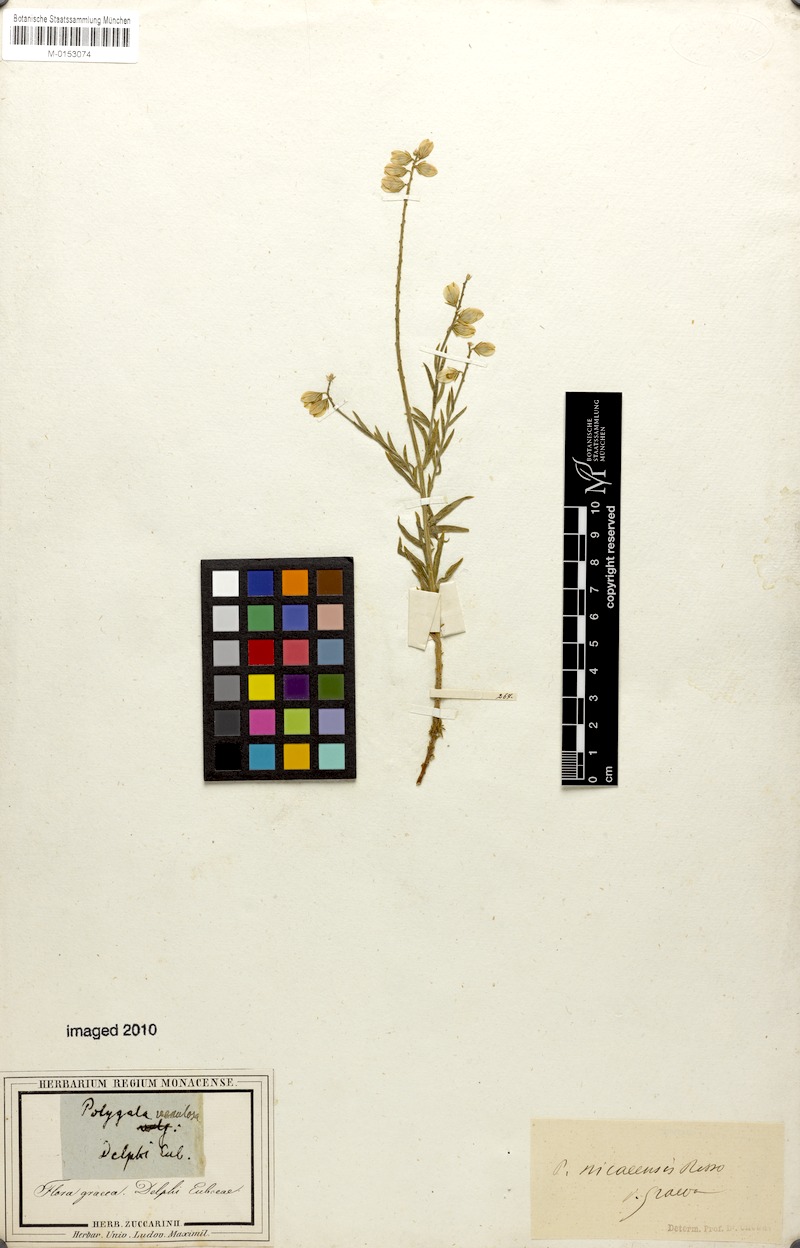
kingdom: Plantae
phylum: Tracheophyta
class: Magnoliopsida
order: Fabales
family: Polygalaceae
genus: Polygala
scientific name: Polygala nicaeensis
